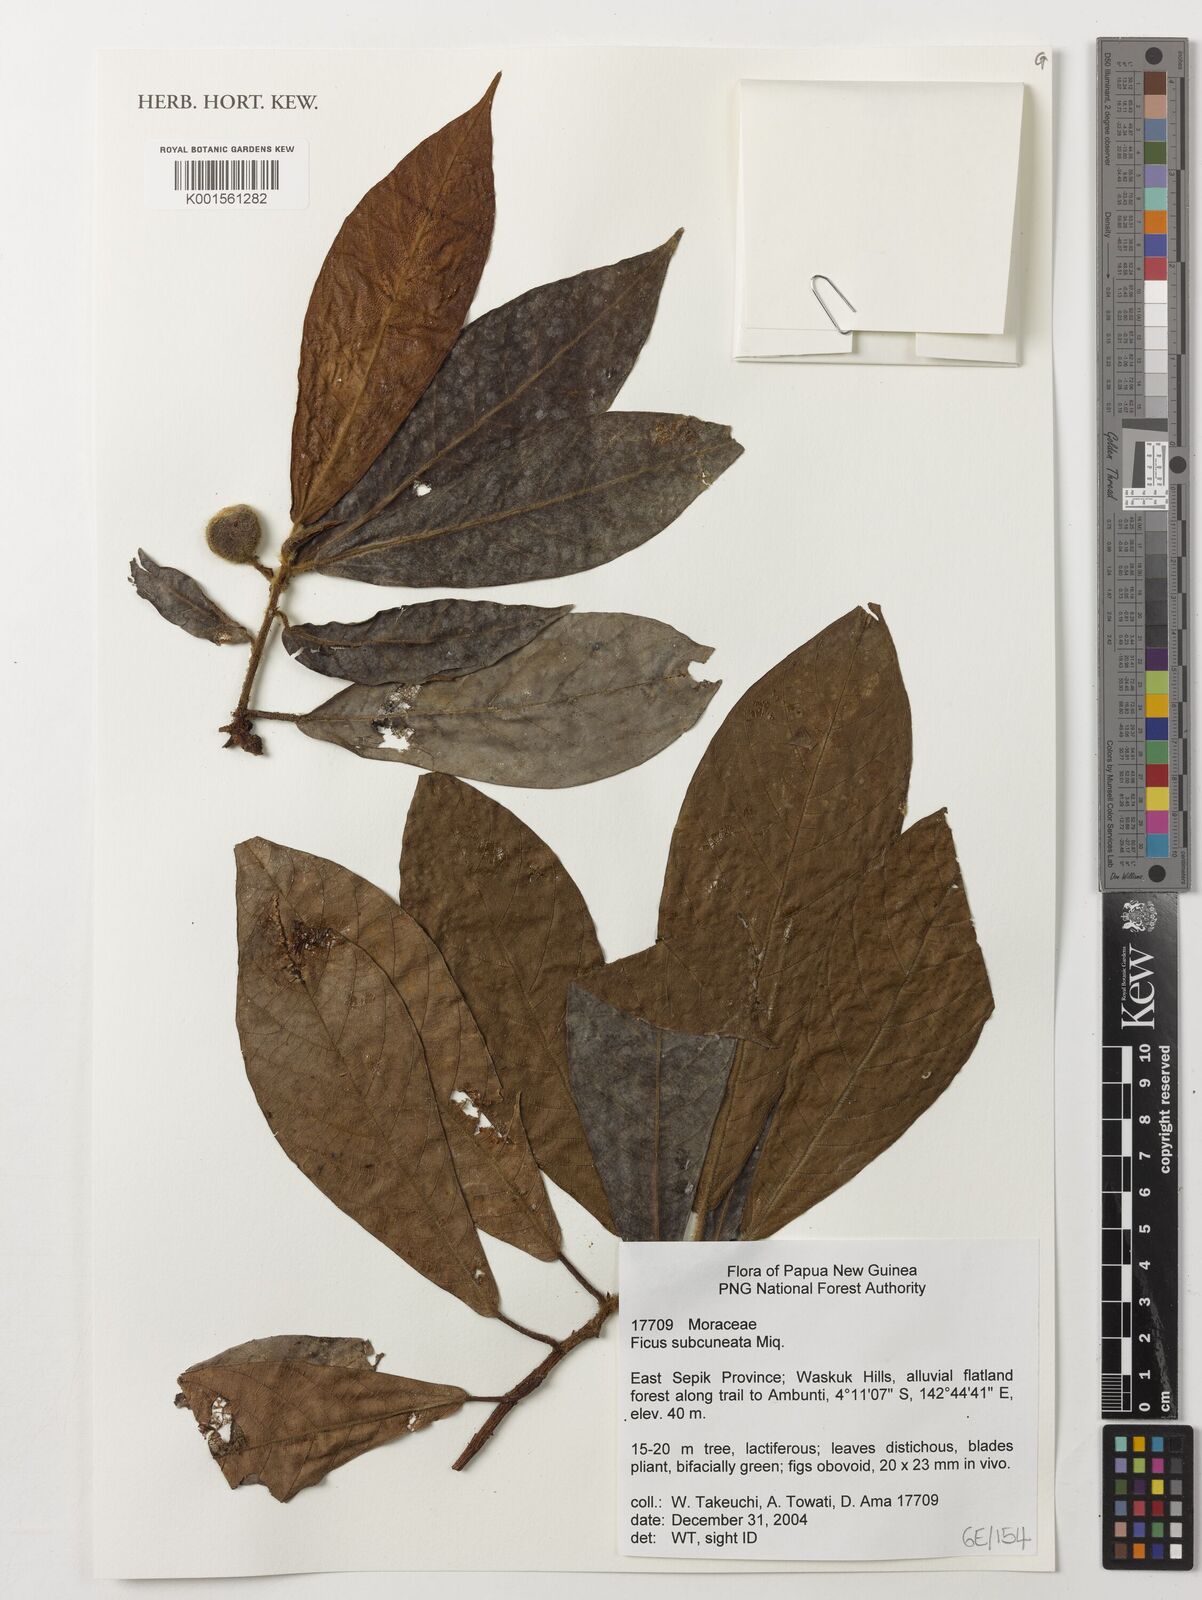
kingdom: Plantae
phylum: Tracheophyta
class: Magnoliopsida
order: Rosales
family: Moraceae
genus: Ficus
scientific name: Ficus subcuneata
